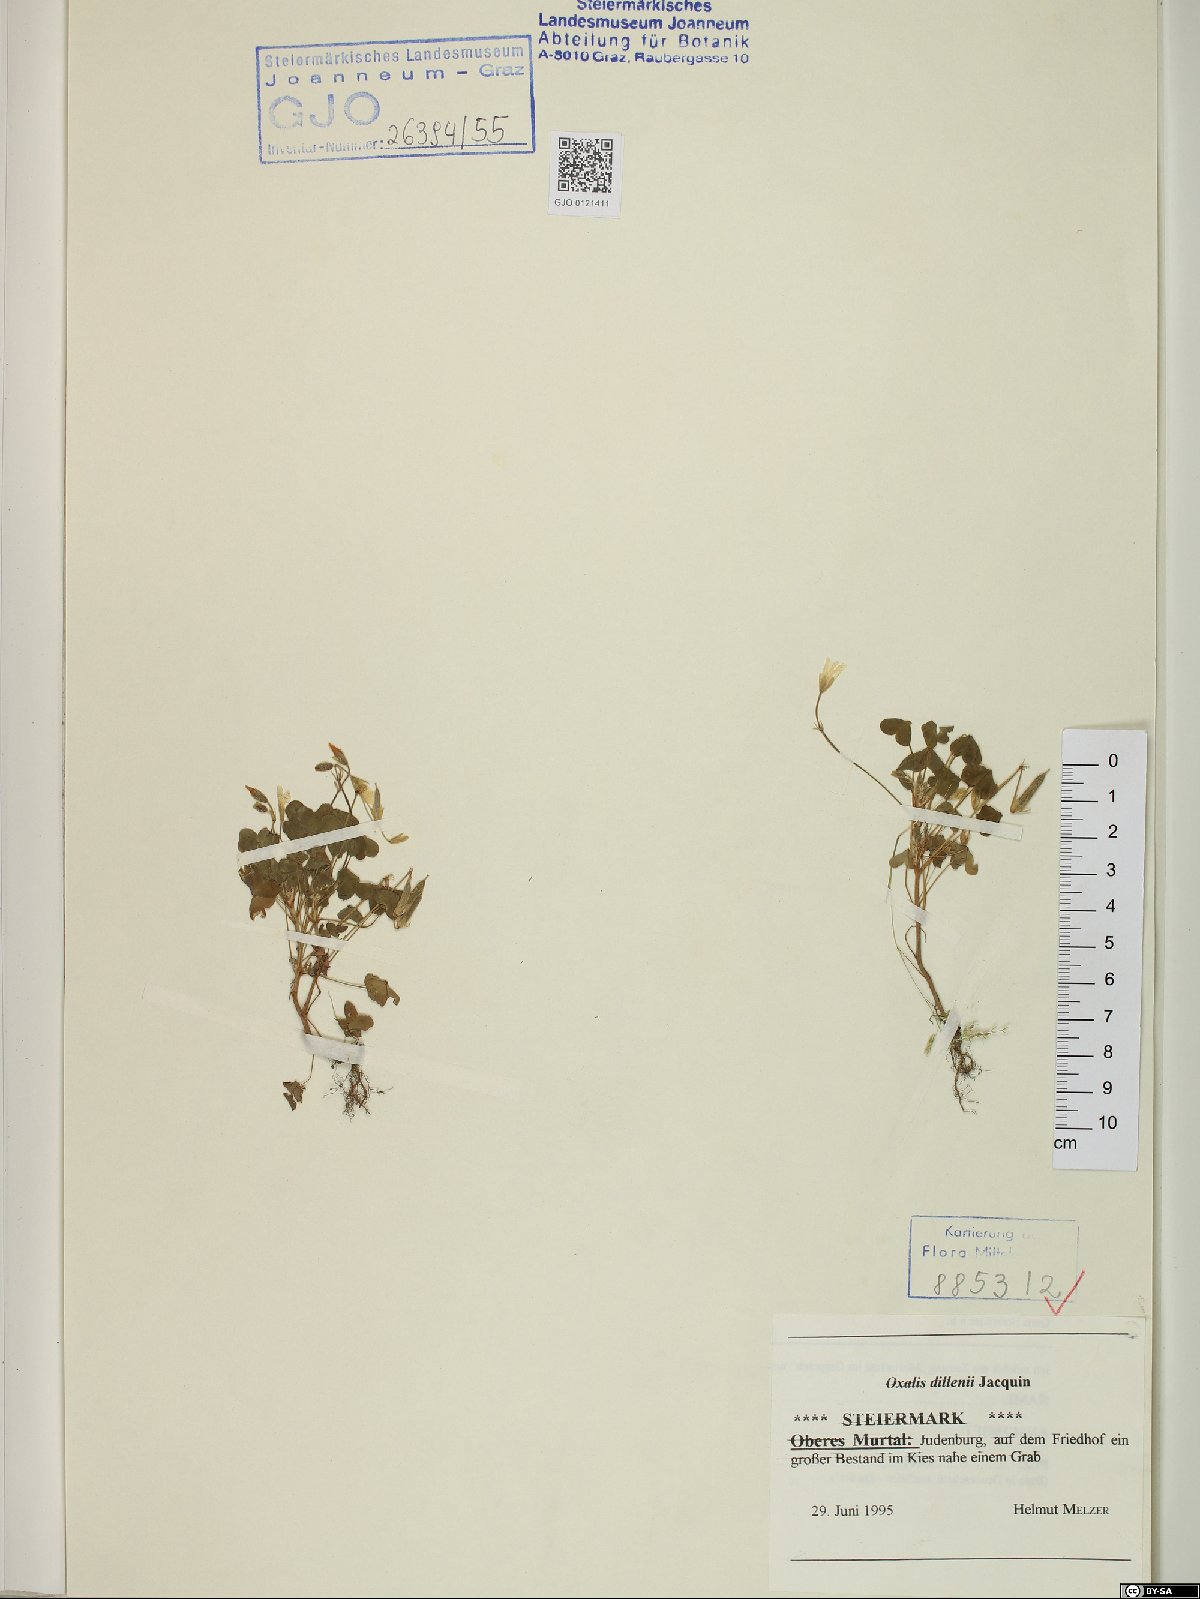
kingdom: Plantae
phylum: Tracheophyta
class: Magnoliopsida
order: Oxalidales
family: Oxalidaceae
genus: Oxalis
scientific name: Oxalis dillenii
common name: Sussex yellow-sorrel
